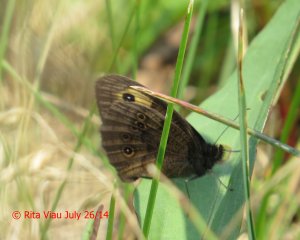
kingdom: Animalia
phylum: Arthropoda
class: Insecta
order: Lepidoptera
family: Nymphalidae
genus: Cercyonis
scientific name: Cercyonis pegala
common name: Common Wood-Nymph
